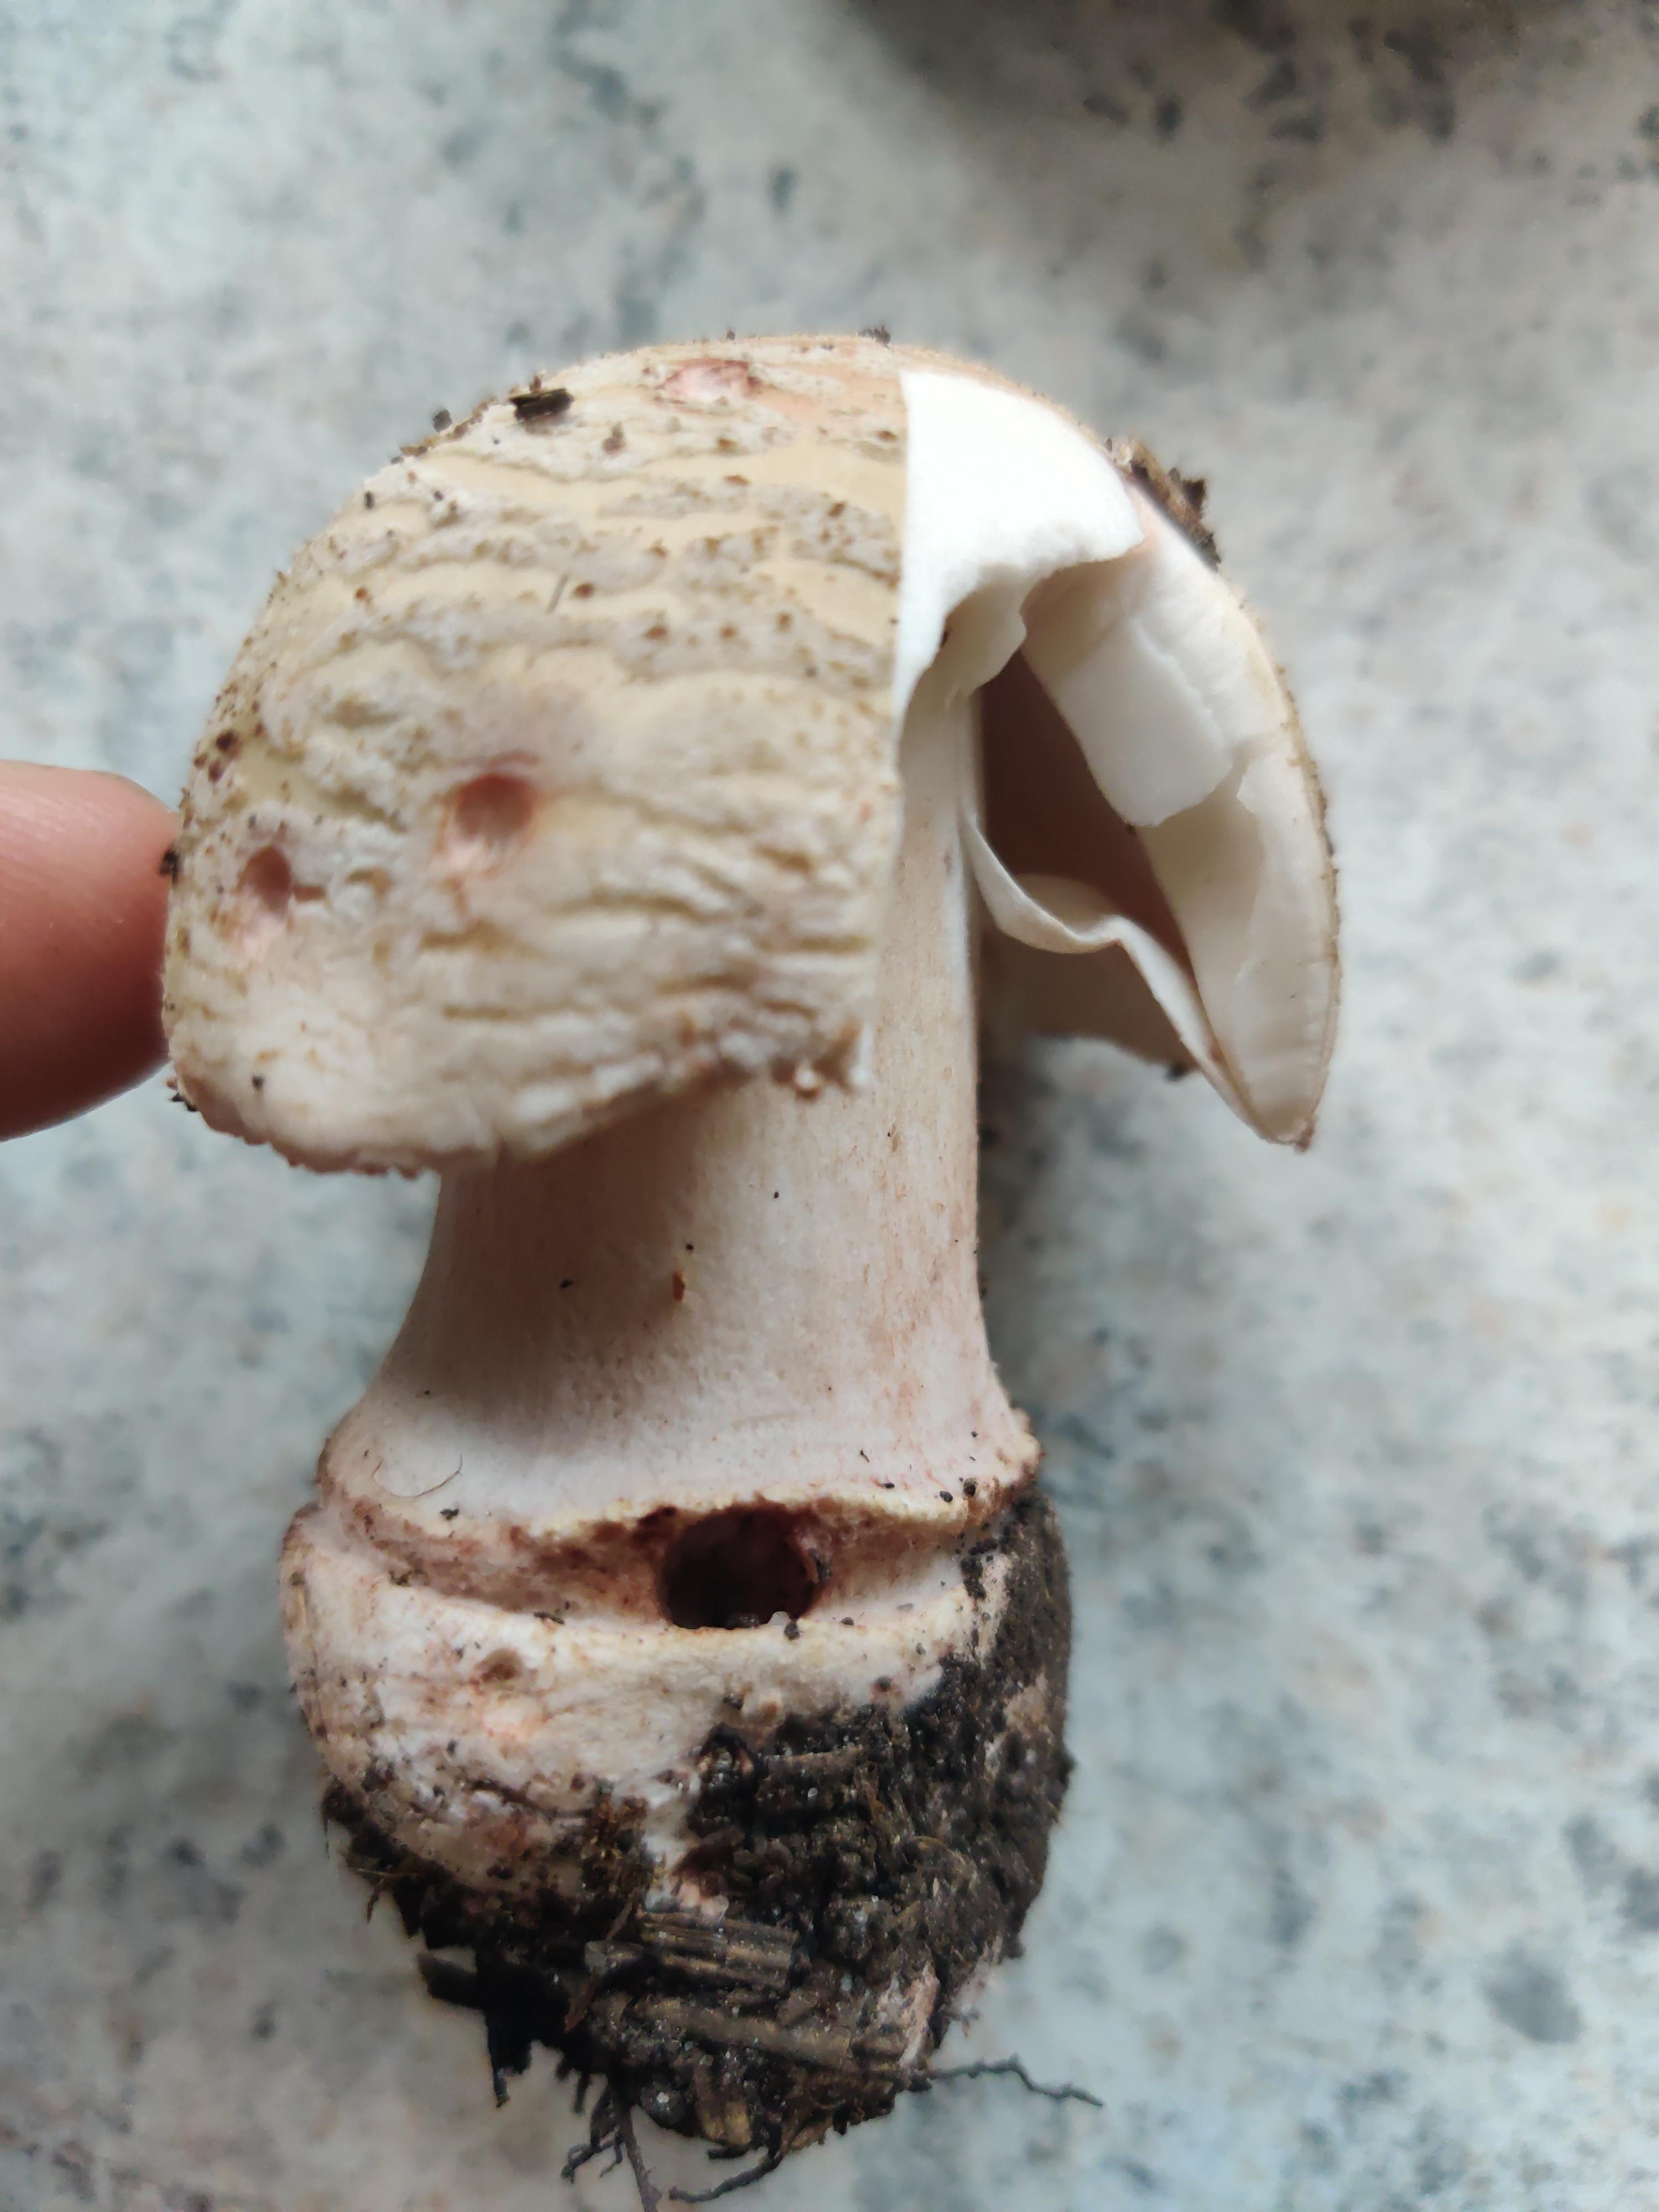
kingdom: Fungi
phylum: Basidiomycota
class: Agaricomycetes
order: Agaricales
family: Amanitaceae
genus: Amanita
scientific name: Amanita rubescens
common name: rødmende fluesvamp
